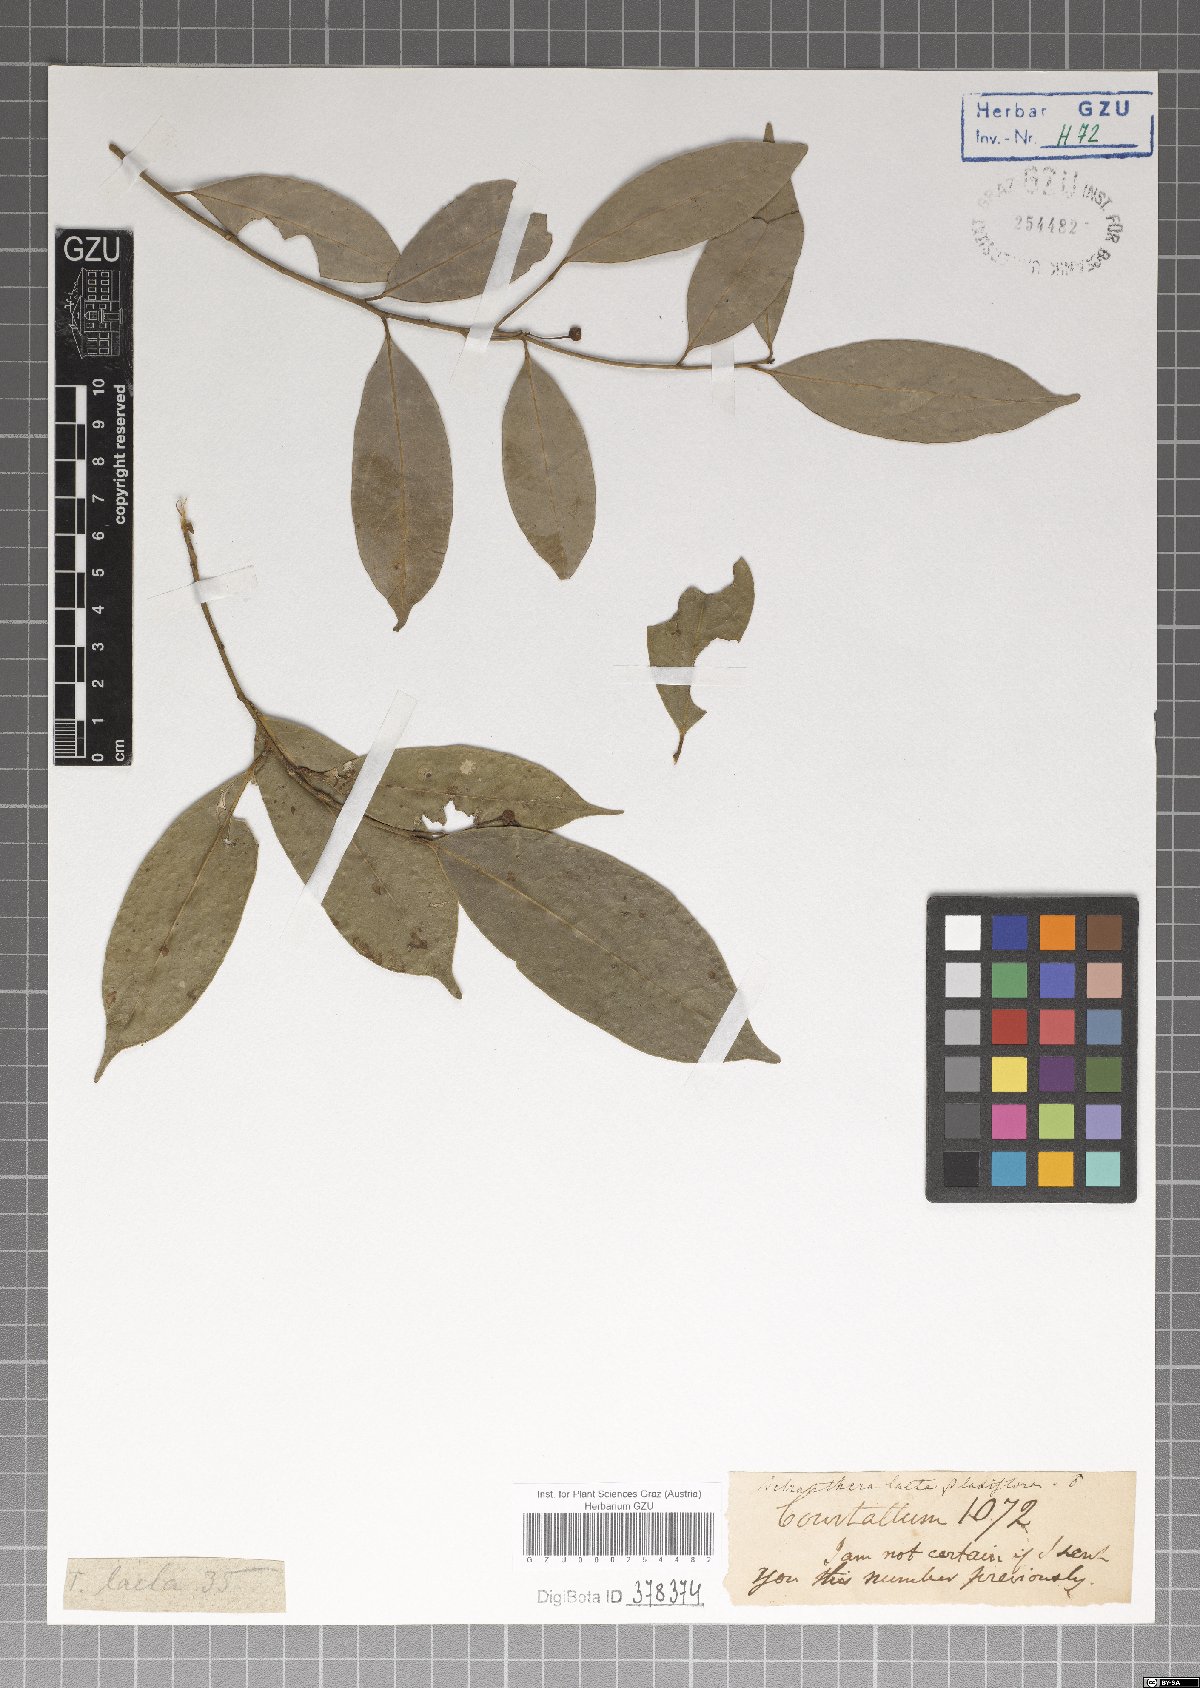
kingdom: Plantae
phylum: Tracheophyta
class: Magnoliopsida
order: Laurales
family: Lauraceae
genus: Litsea
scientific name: Litsea laeta
